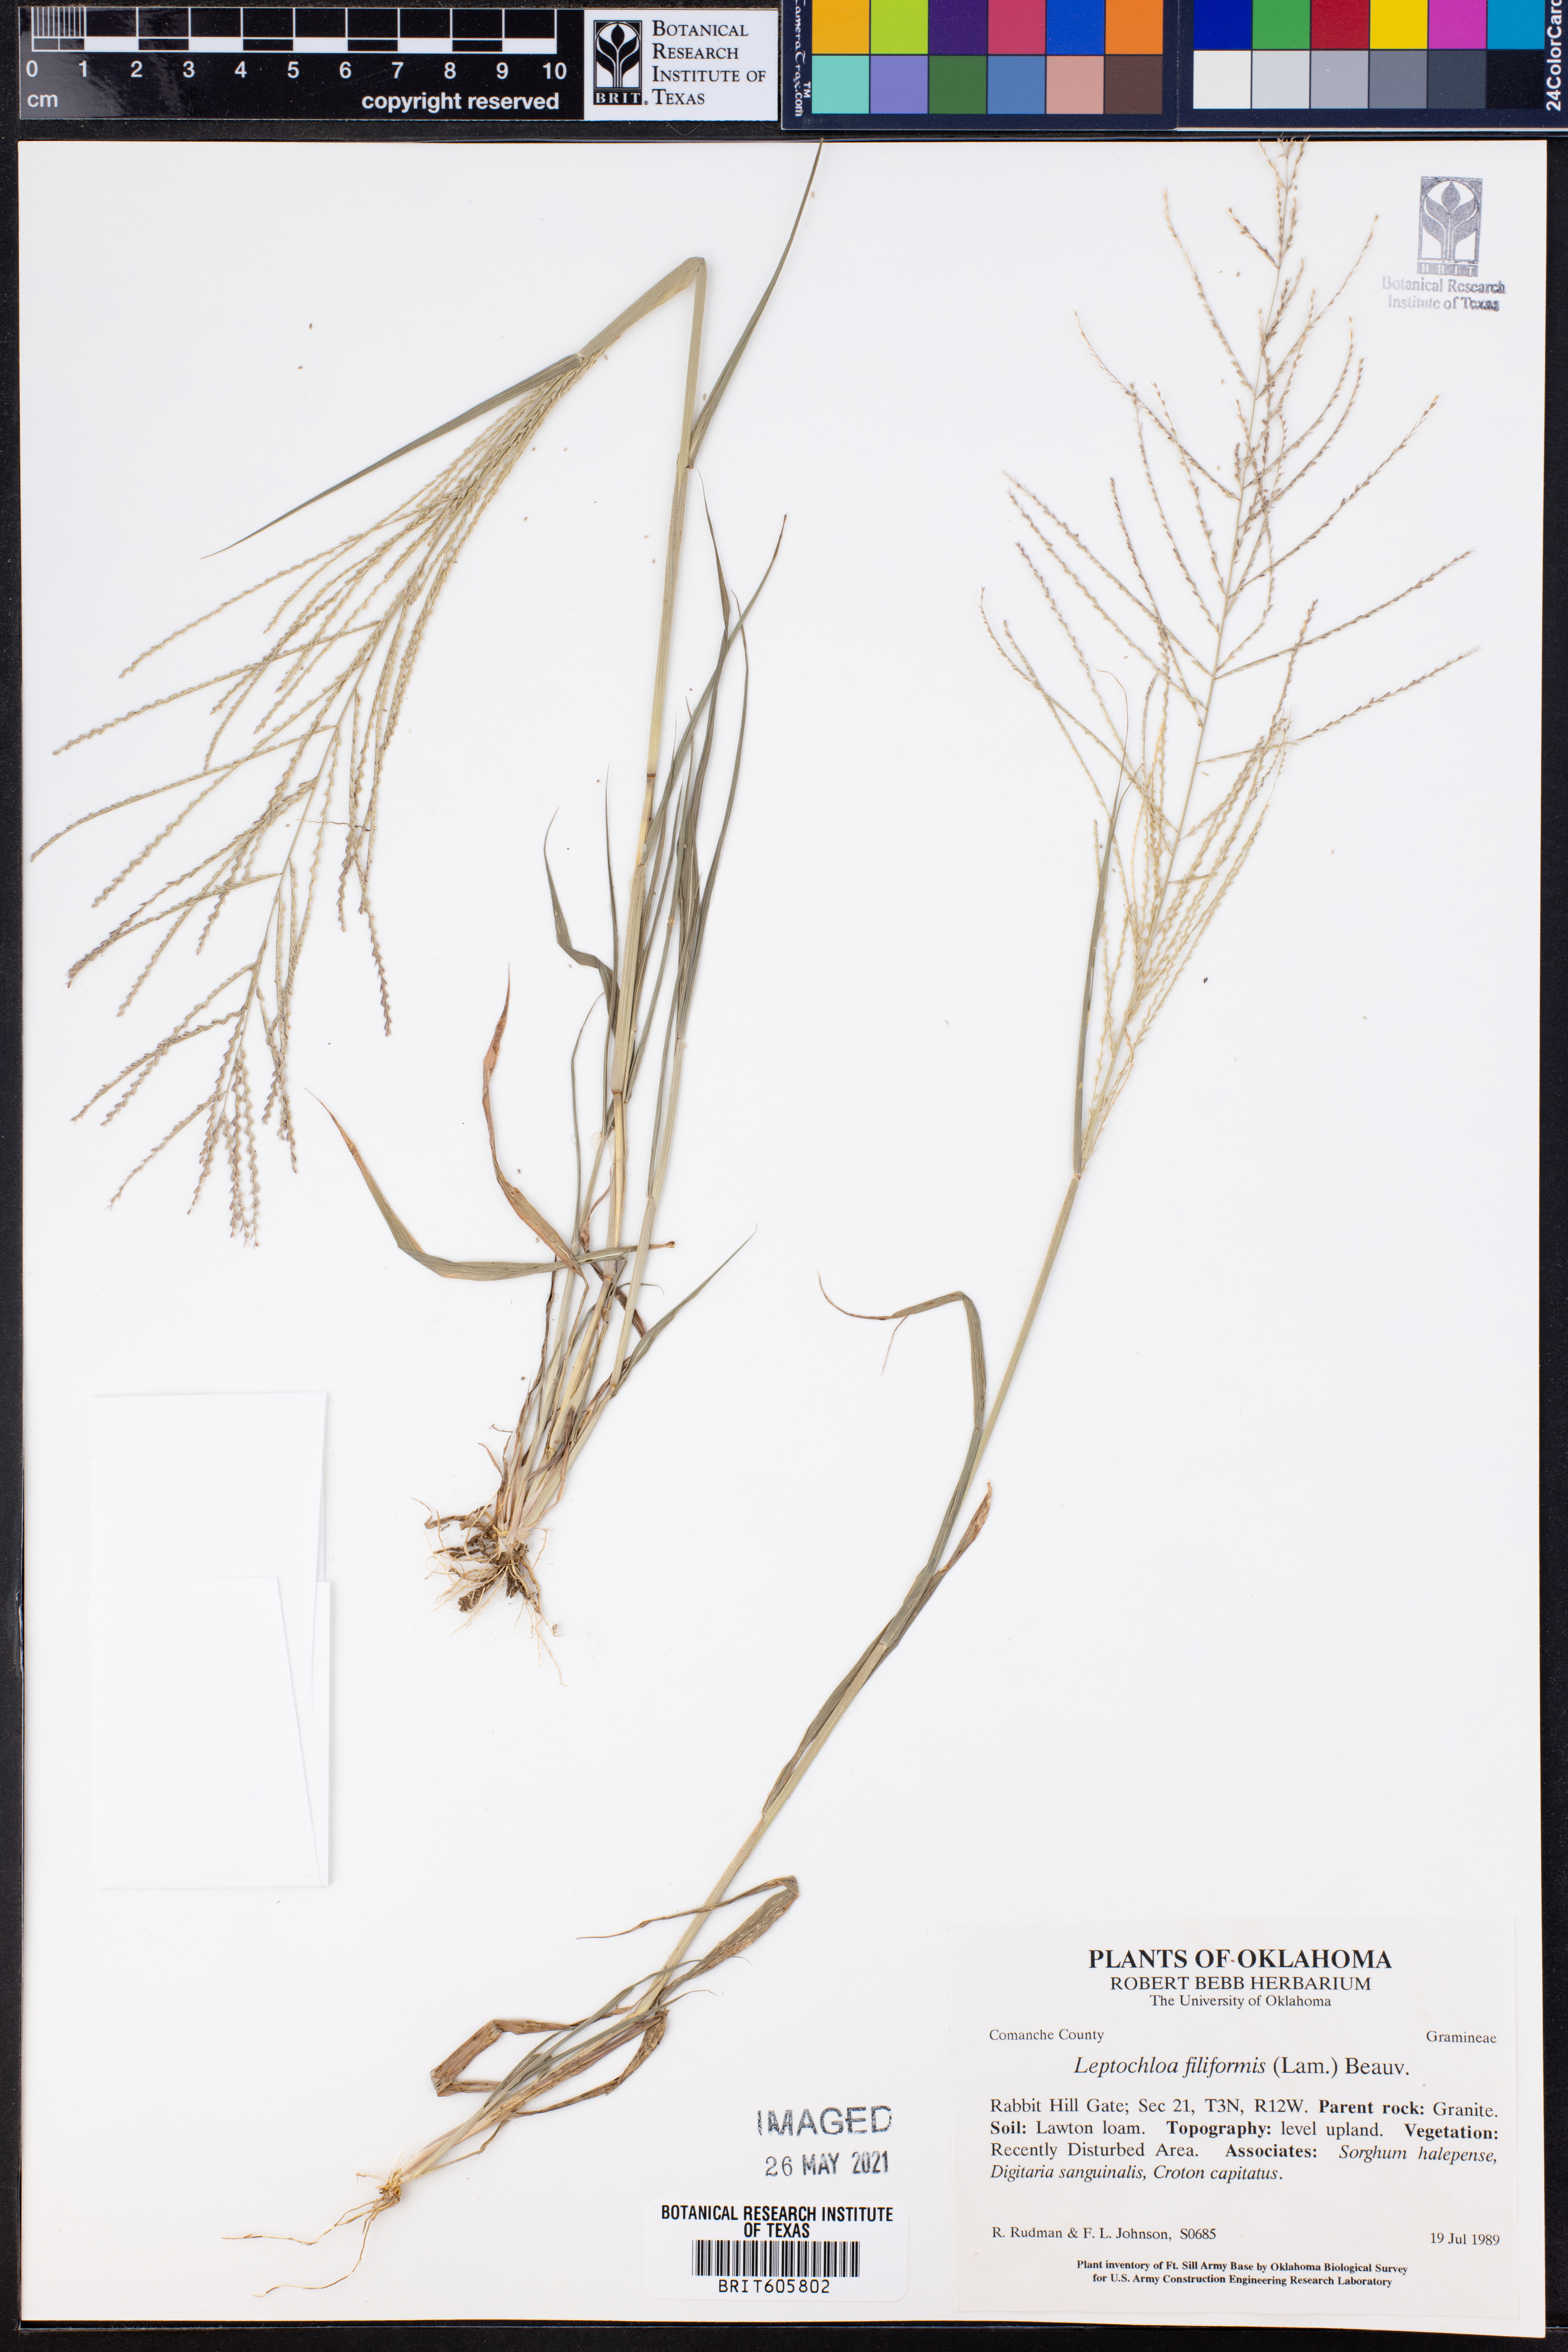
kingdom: Plantae
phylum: Tracheophyta
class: Liliopsida
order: Poales
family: Poaceae
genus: Leptochloa
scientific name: Leptochloa mucronata
